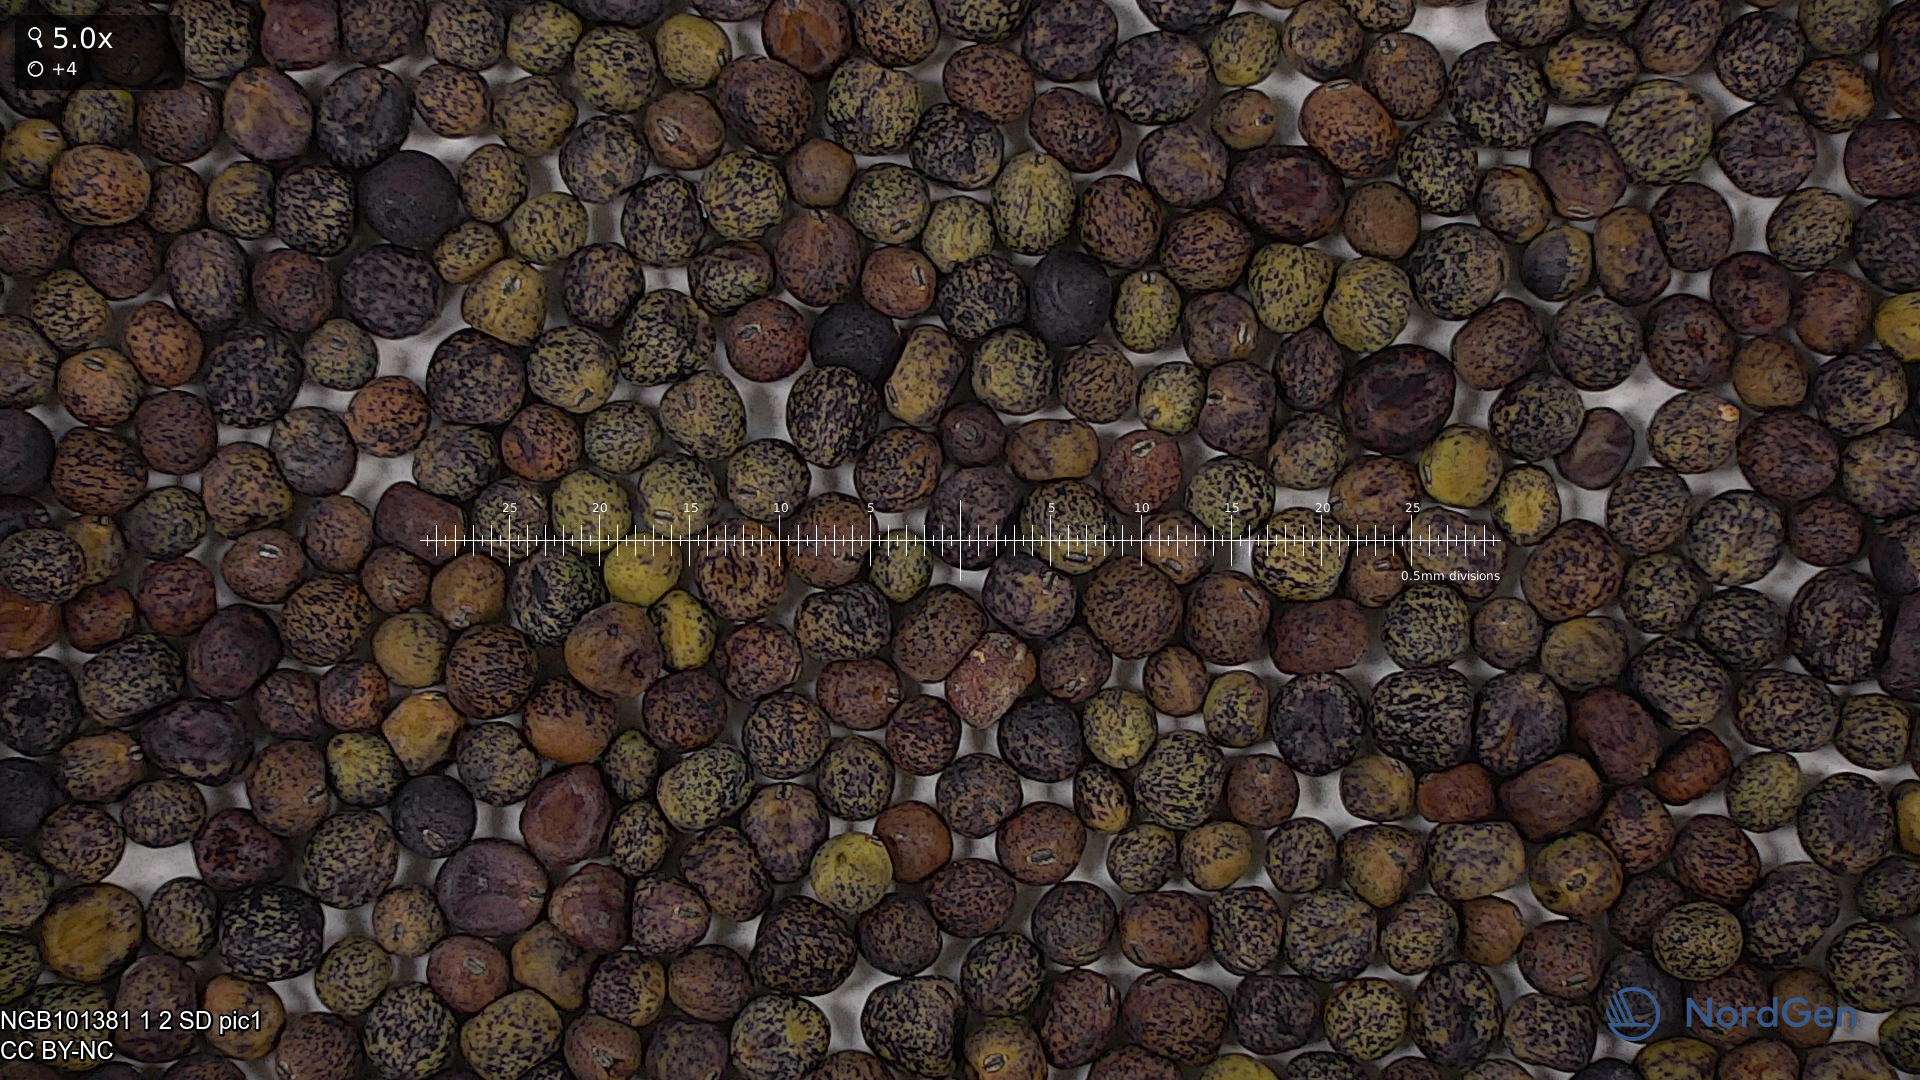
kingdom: Plantae
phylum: Tracheophyta
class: Magnoliopsida
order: Fabales
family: Fabaceae
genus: Lathyrus
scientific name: Lathyrus oleraceus
